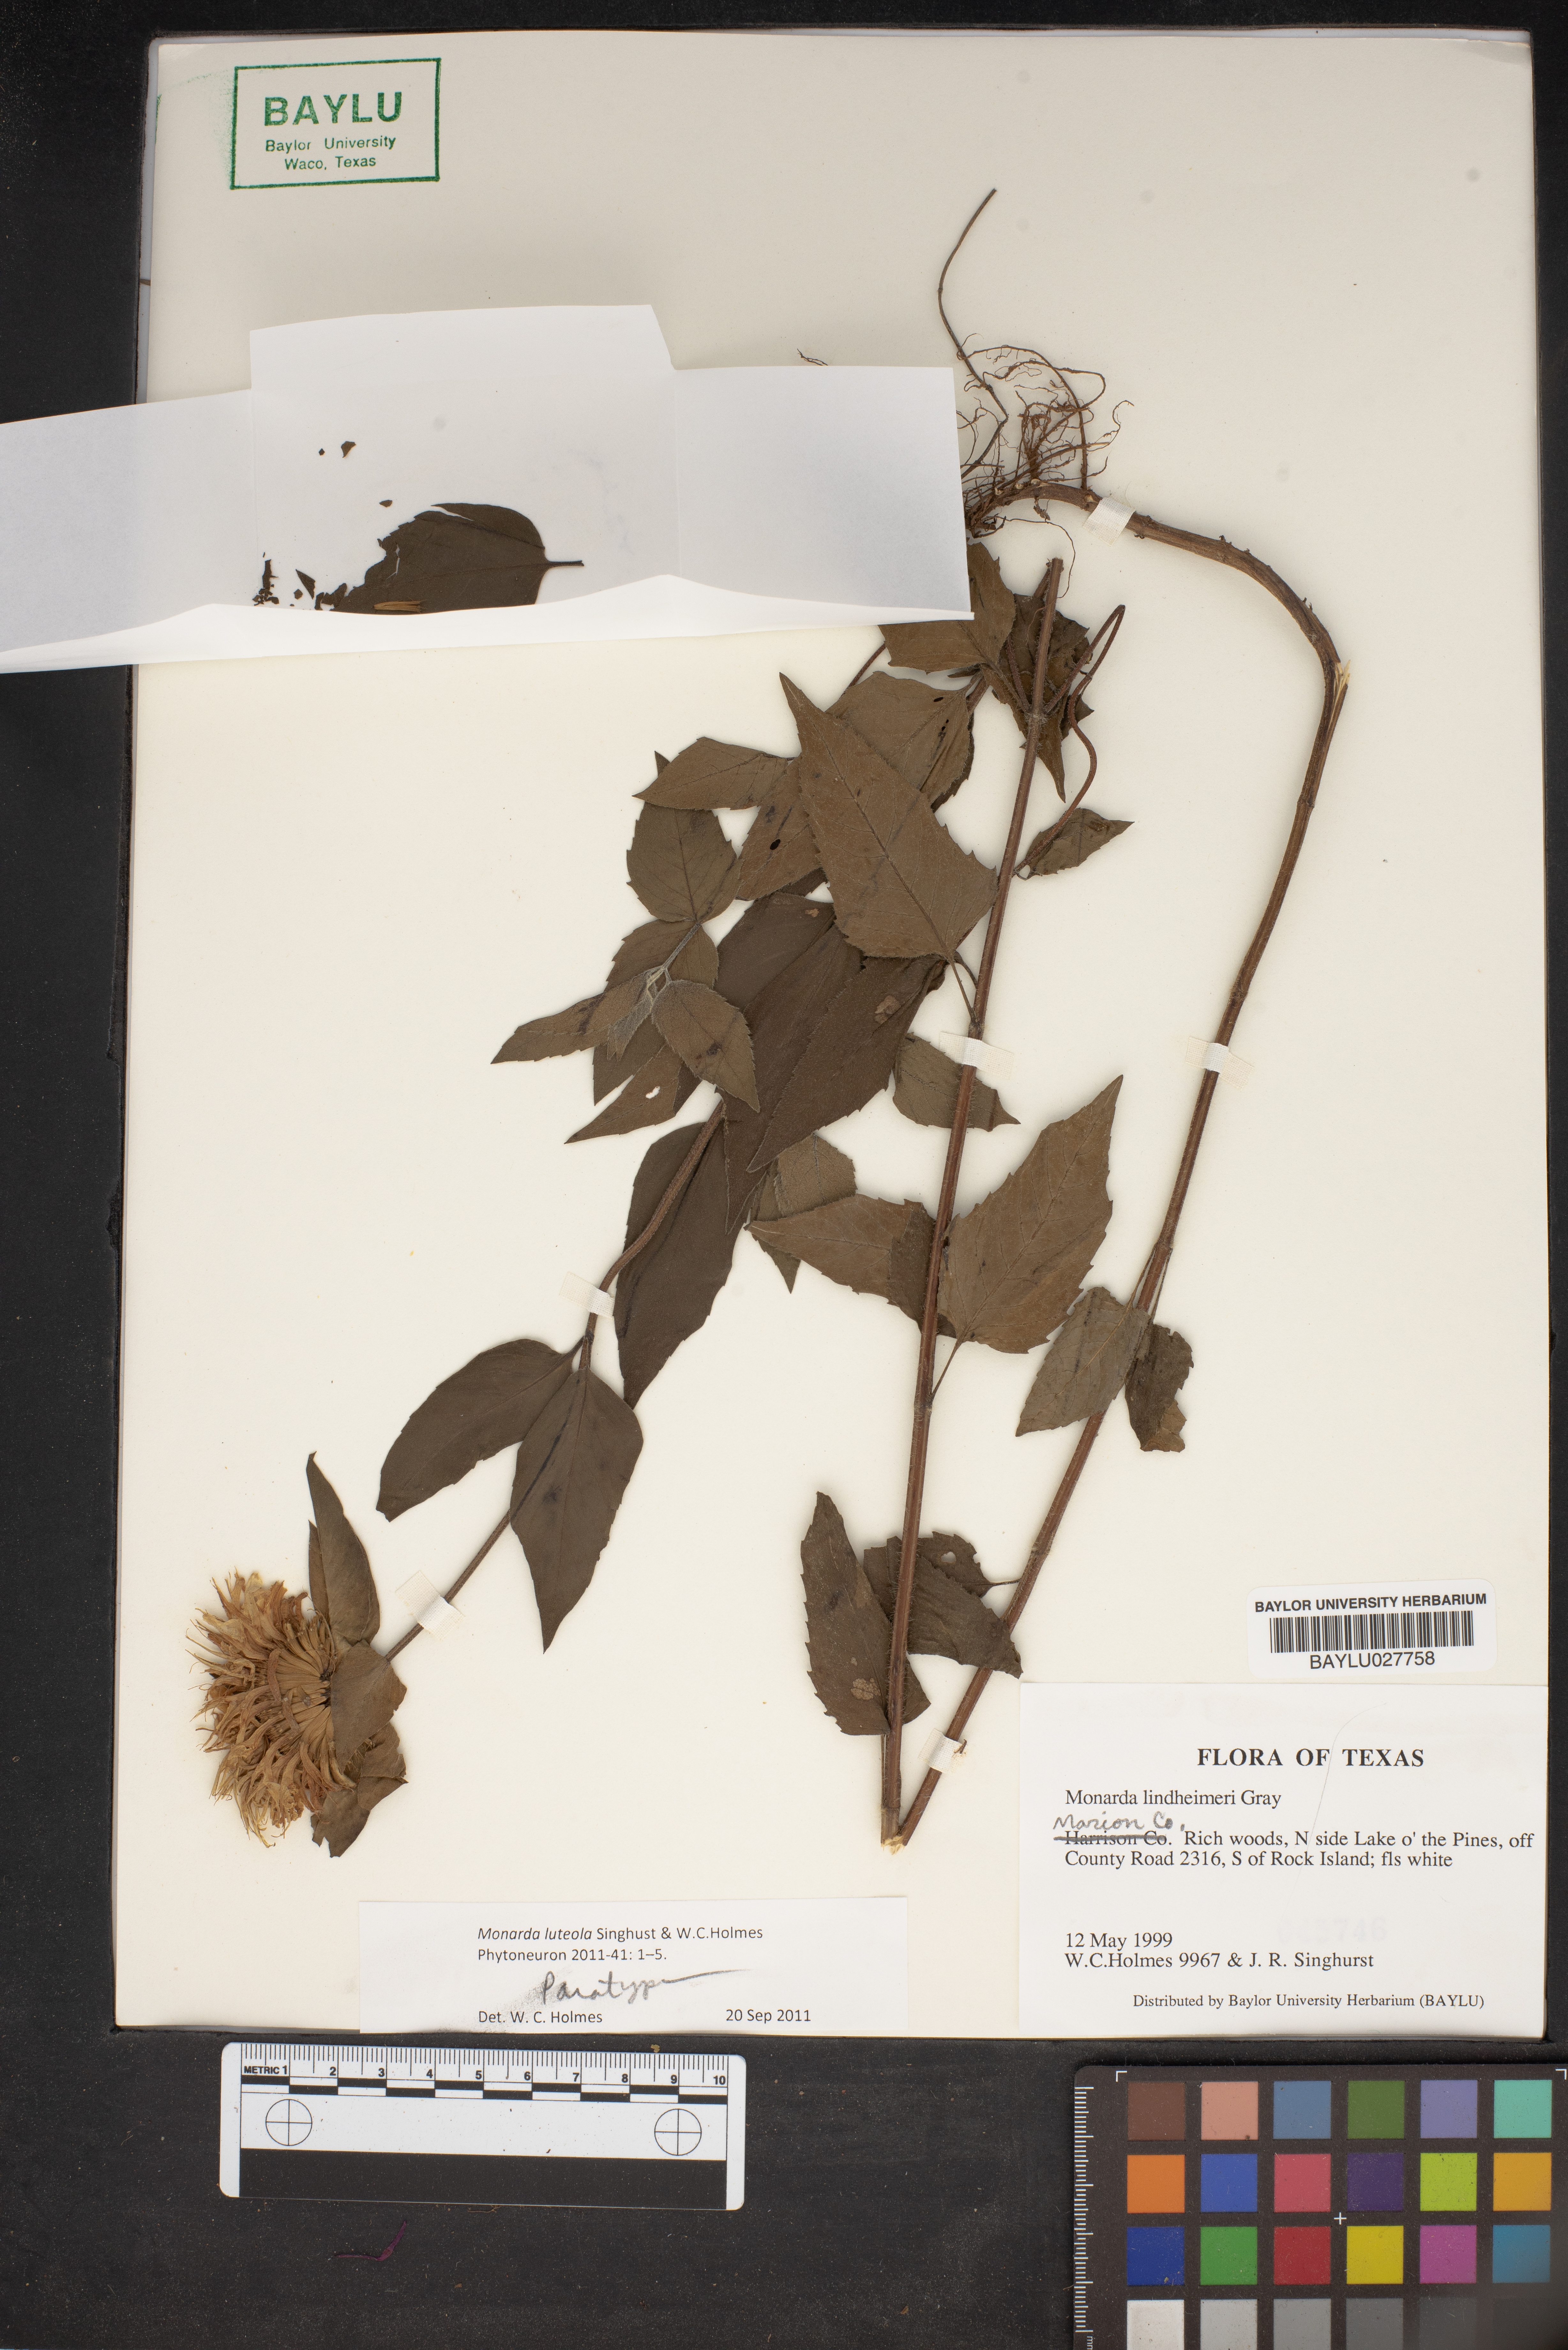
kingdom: Plantae
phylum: Tracheophyta
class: Magnoliopsida
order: Lamiales
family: Lamiaceae
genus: Monarda
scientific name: Monarda lindheimeri
